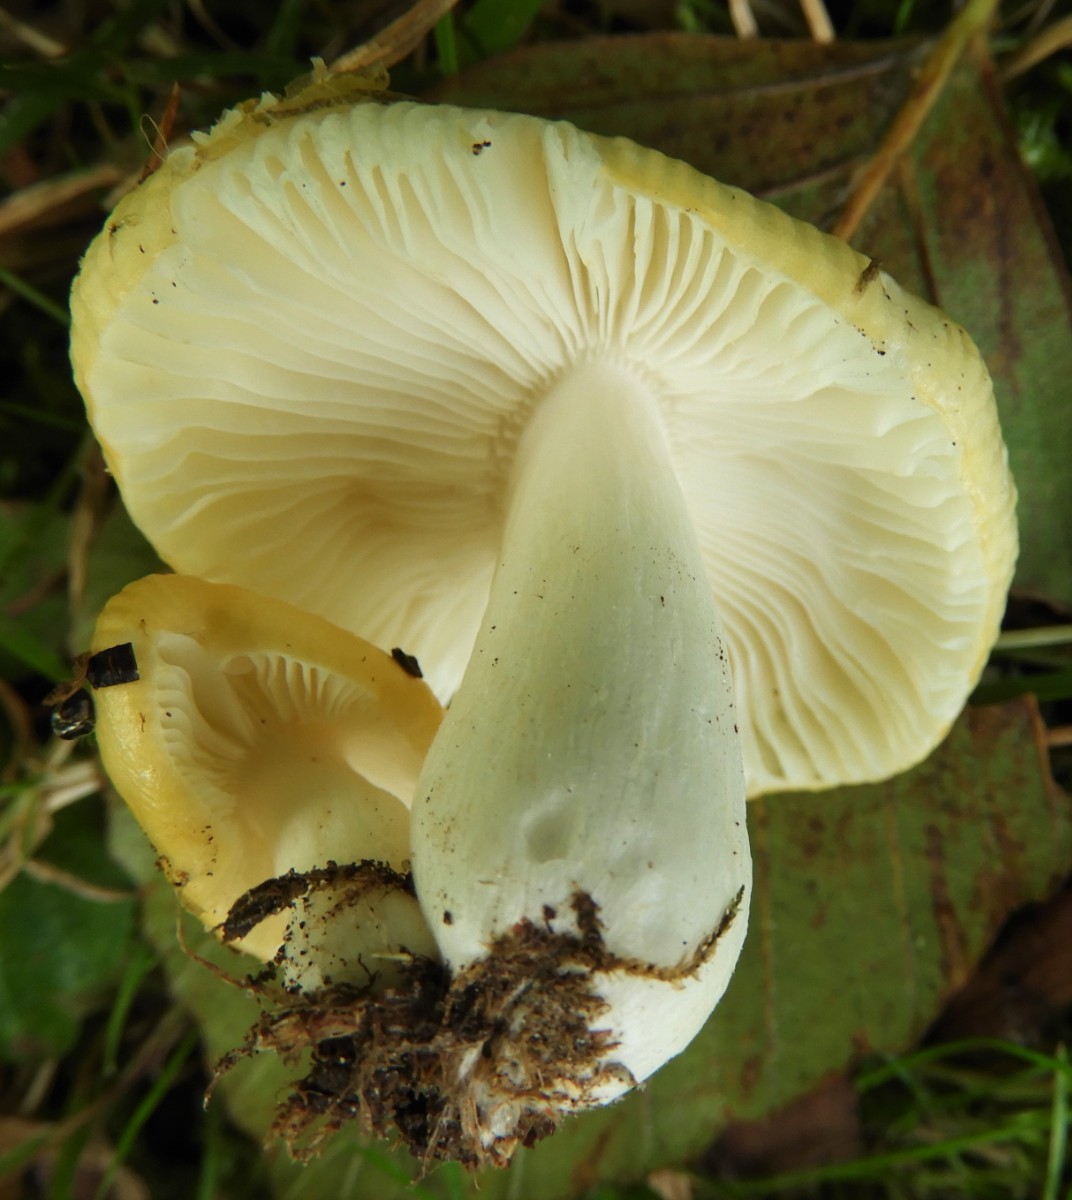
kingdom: Fungi
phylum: Basidiomycota
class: Agaricomycetes
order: Russulales
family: Russulaceae
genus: Russula
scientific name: Russula solaris
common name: sol-skørhat
